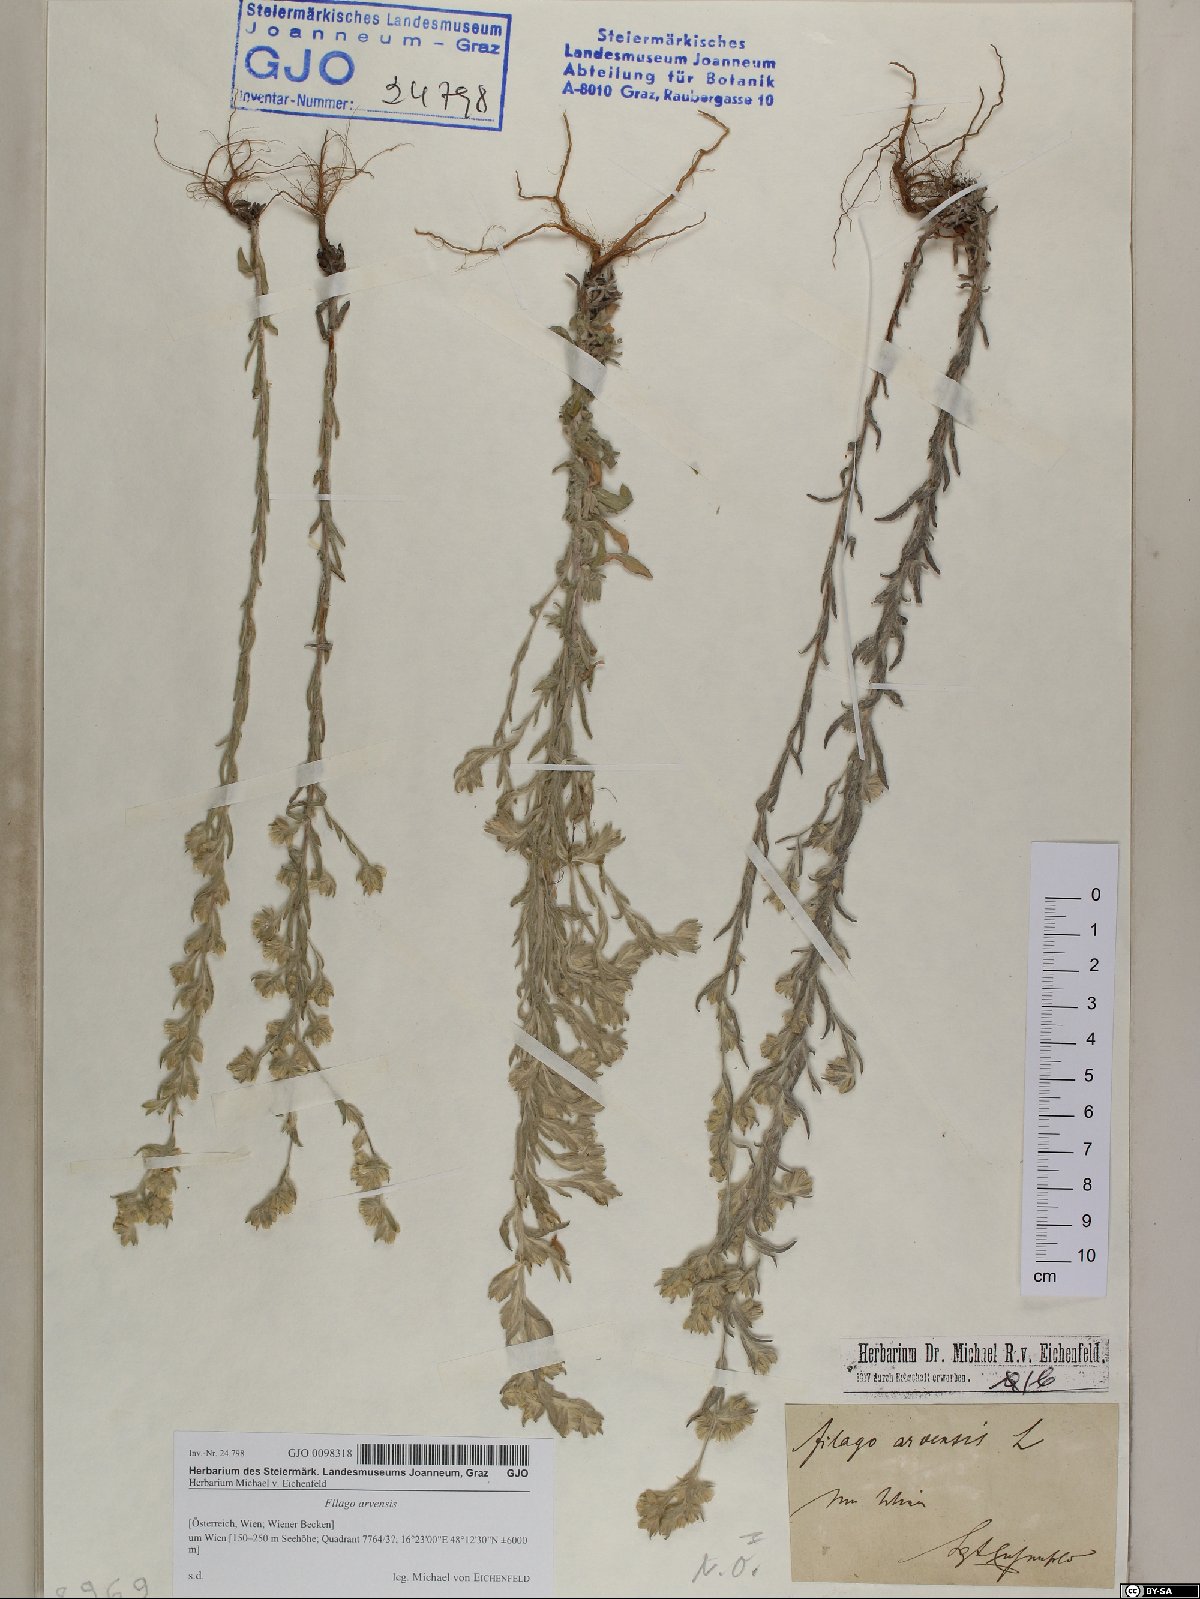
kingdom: Plantae
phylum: Tracheophyta
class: Magnoliopsida
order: Asterales
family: Asteraceae
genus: Filago
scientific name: Filago arvensis
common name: Field cudweed
